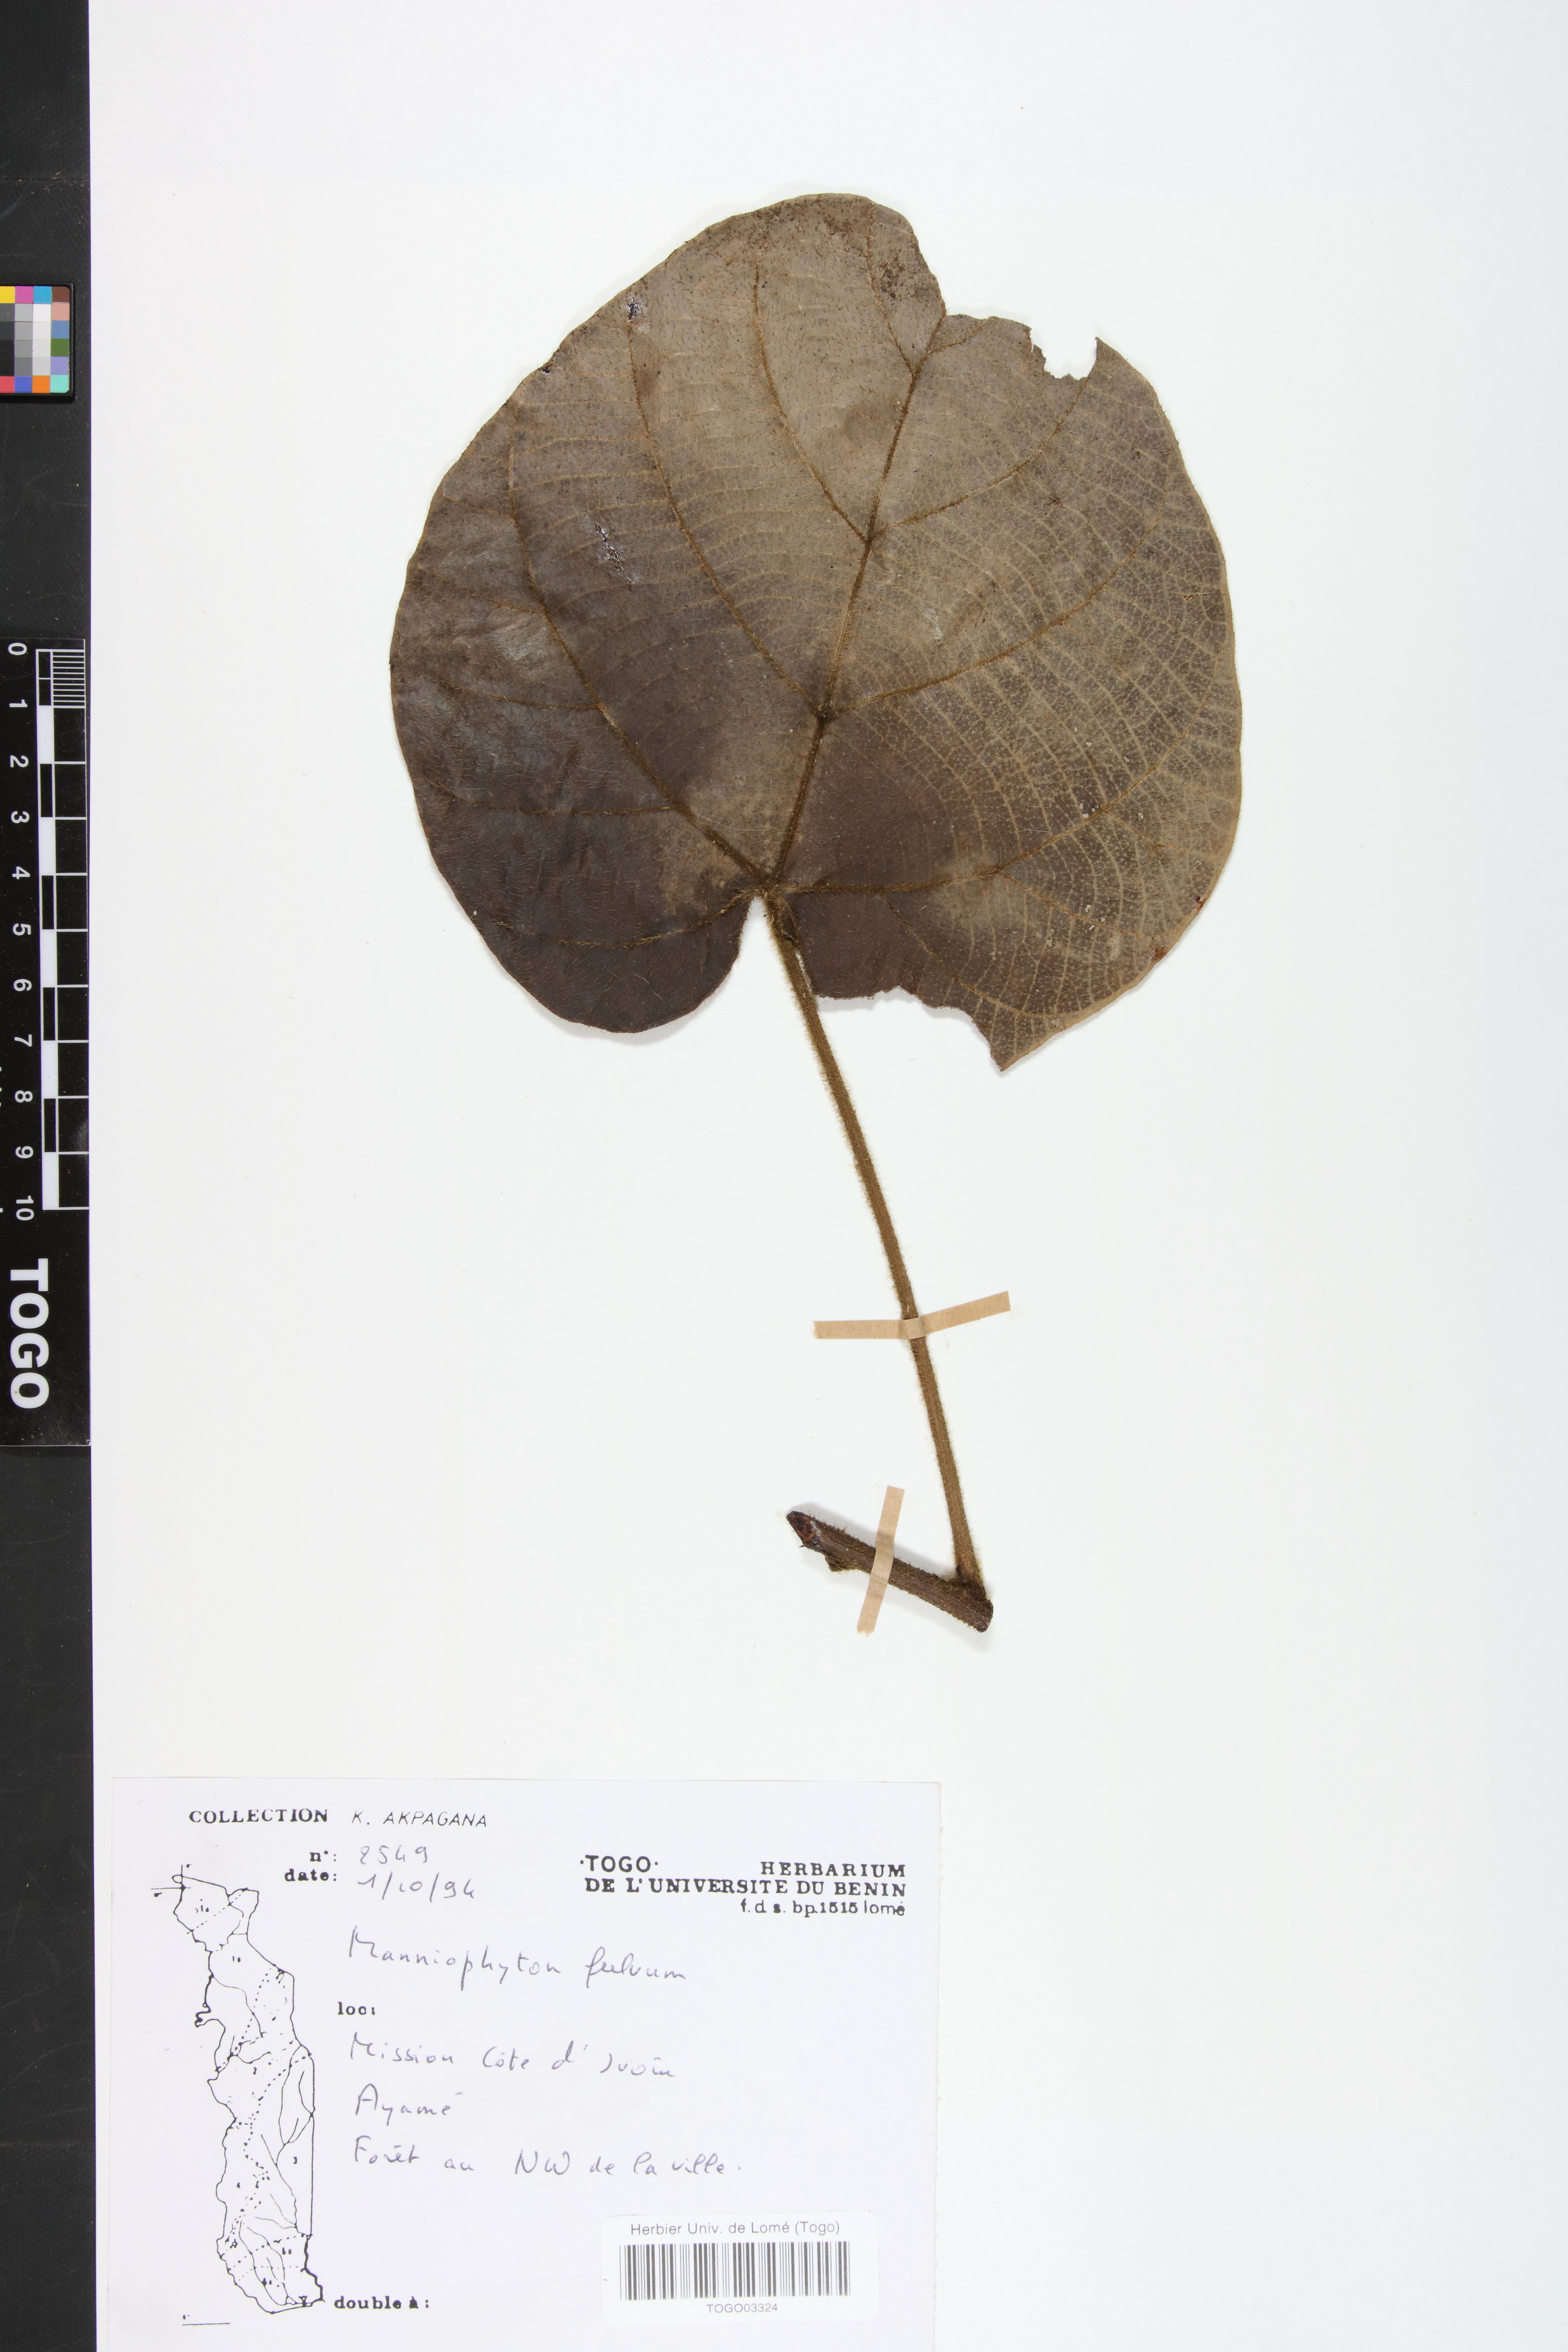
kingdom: Plantae
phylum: Tracheophyta
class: Magnoliopsida
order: Malpighiales
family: Euphorbiaceae
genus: Manniophyton
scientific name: Manniophyton fulvum
